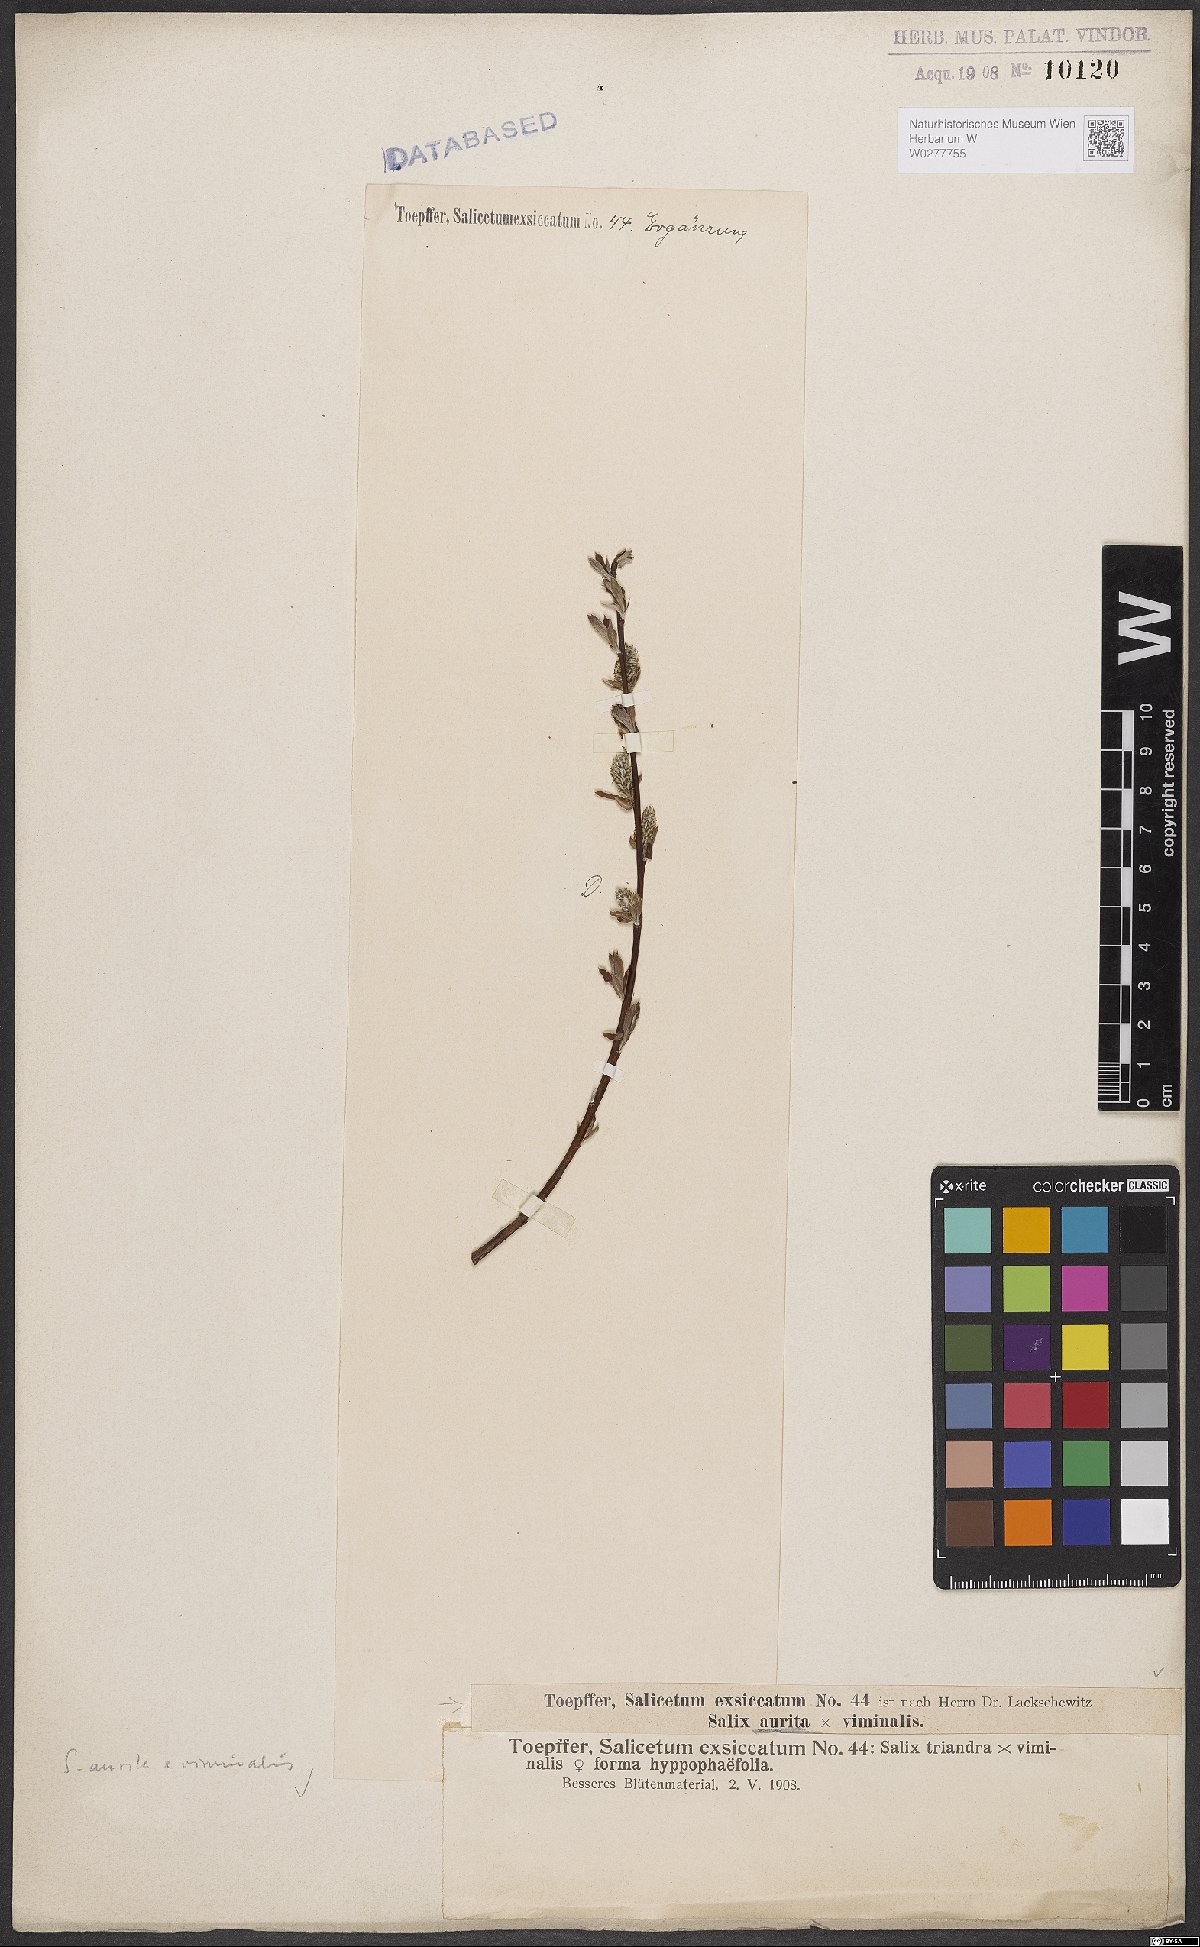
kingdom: Plantae
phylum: Tracheophyta
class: Magnoliopsida
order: Malpighiales
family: Salicaceae
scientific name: Salicaceae
